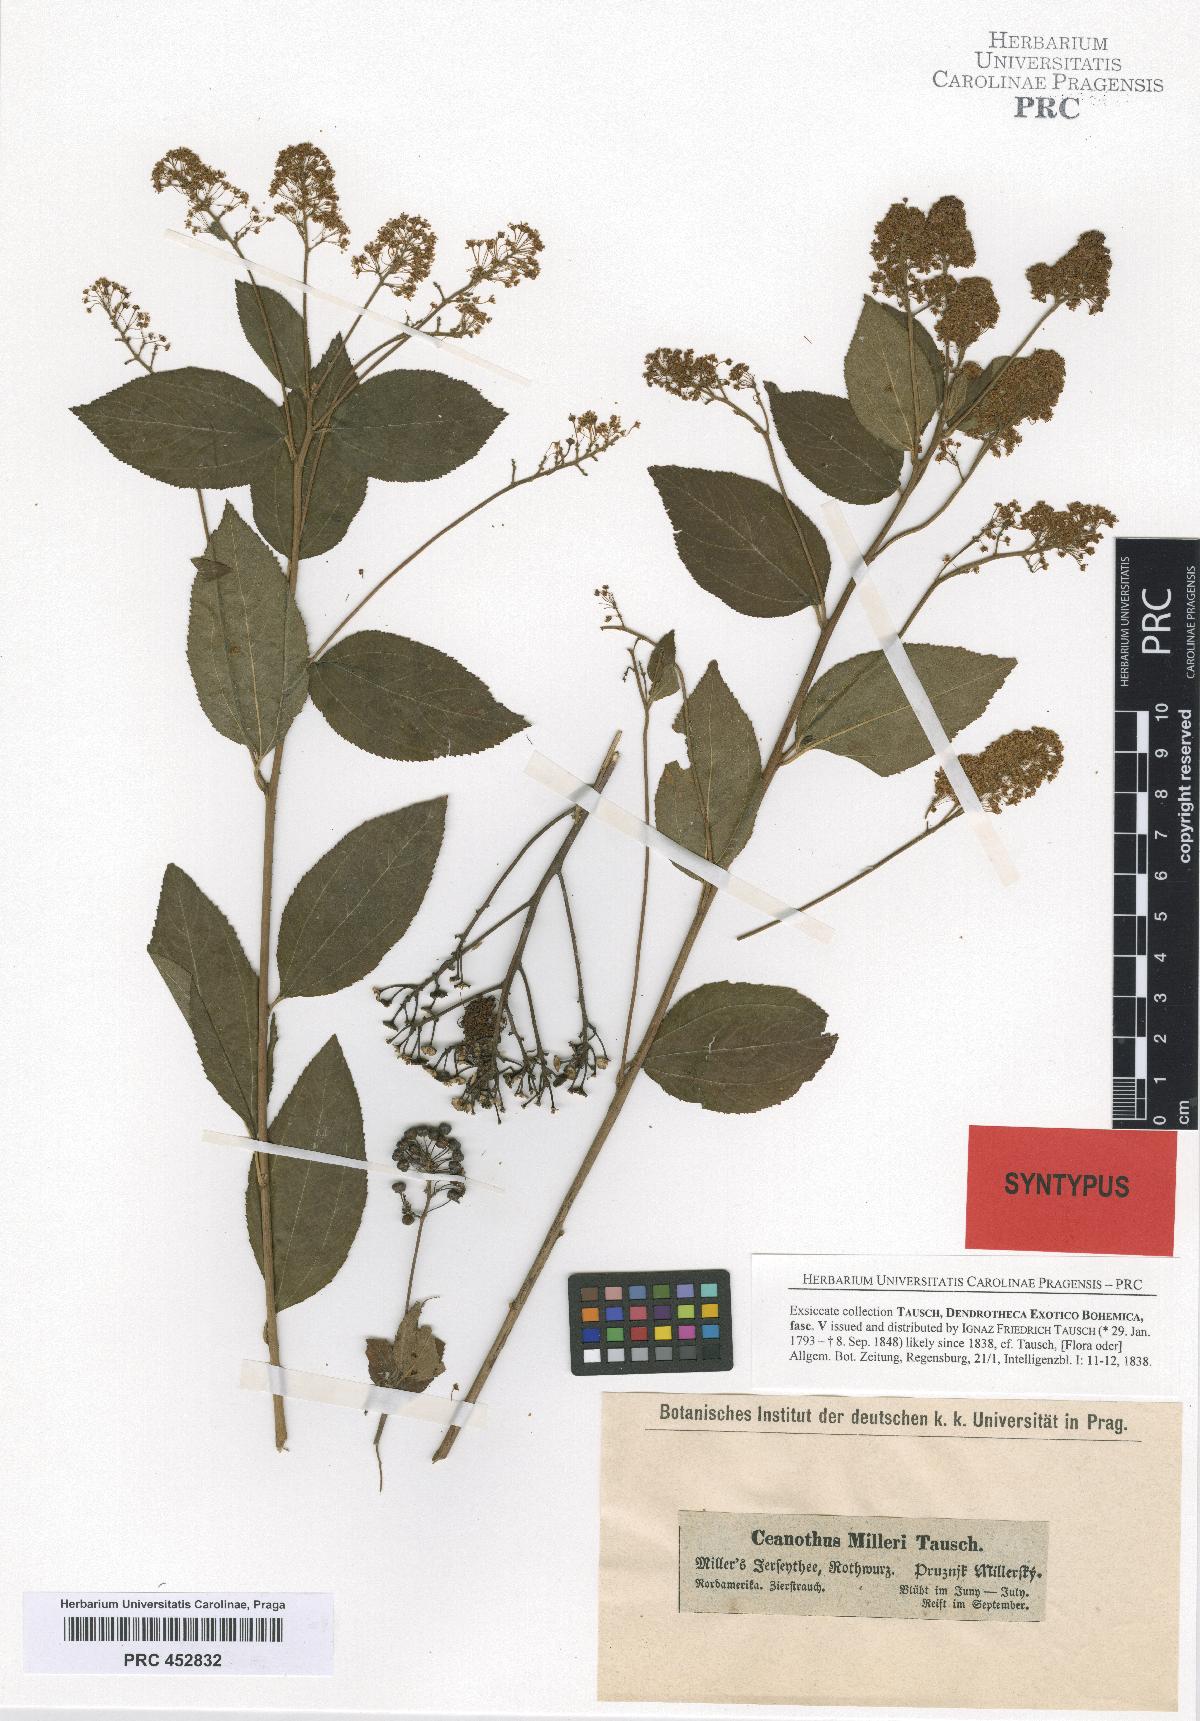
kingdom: Plantae
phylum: Tracheophyta
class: Magnoliopsida
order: Rosales
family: Rhamnaceae
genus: Ceanothus
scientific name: Ceanothus americanus
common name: Redroot
